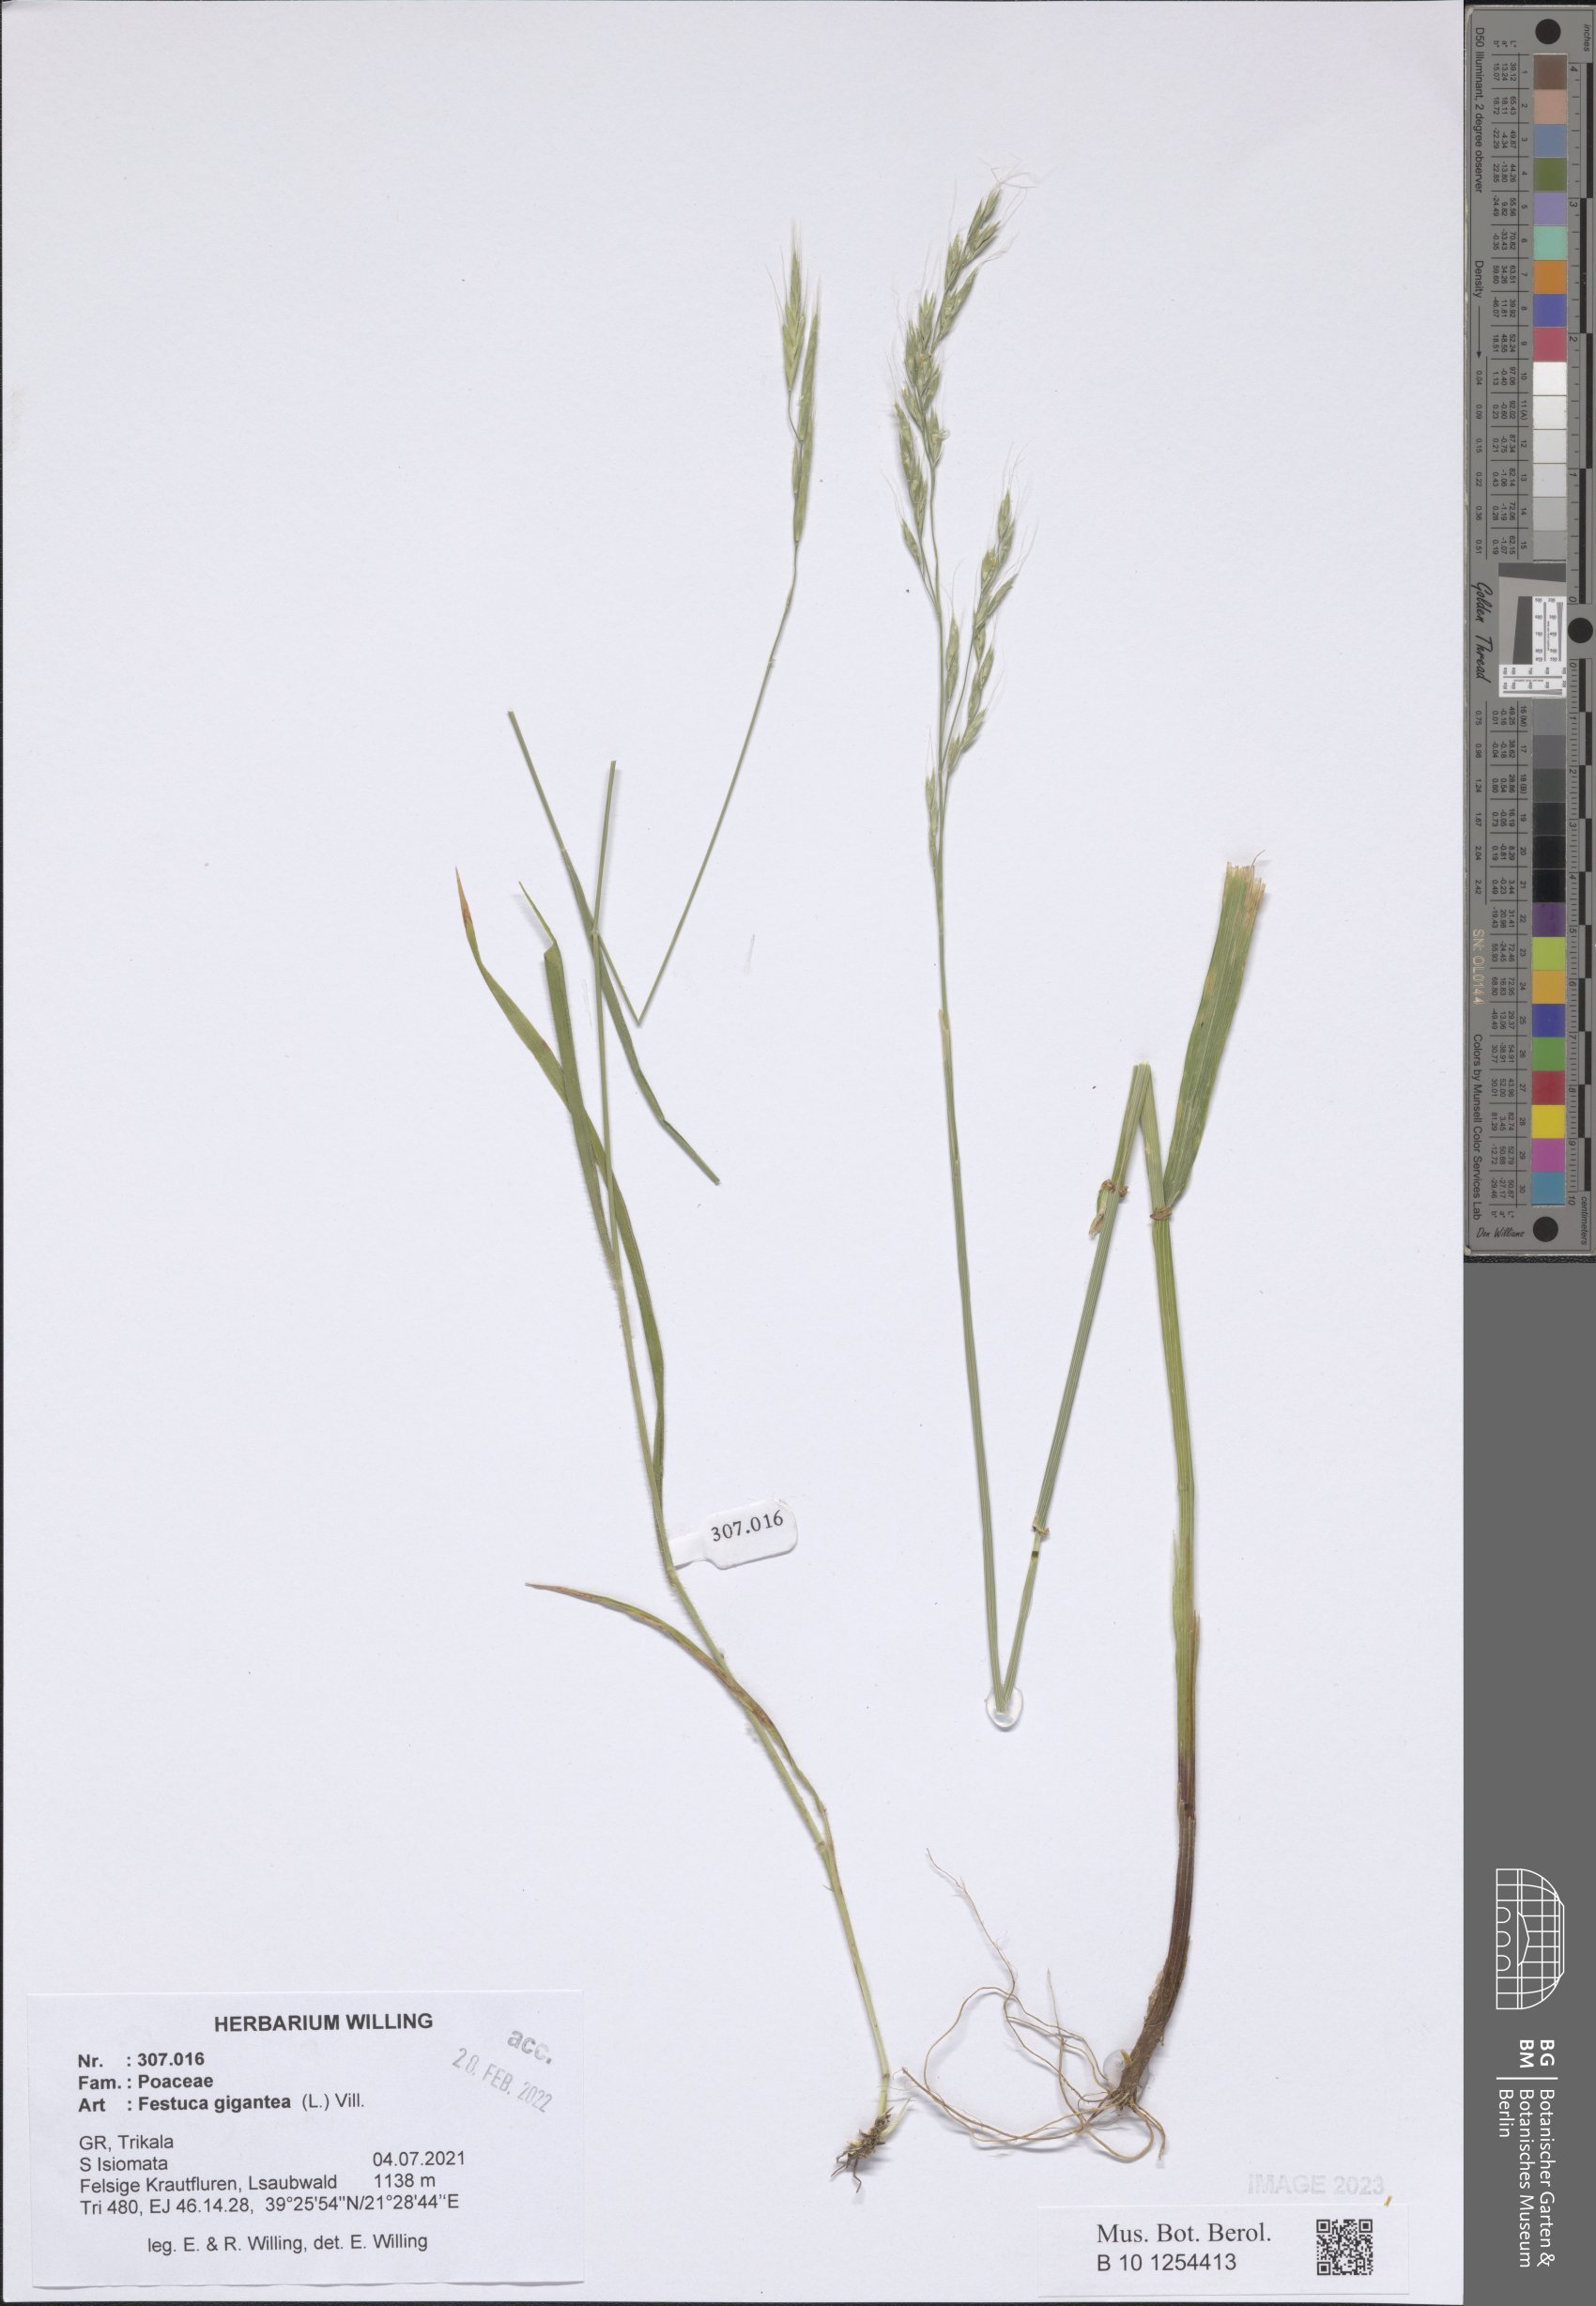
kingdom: Plantae
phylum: Tracheophyta
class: Liliopsida
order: Poales
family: Poaceae
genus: Lolium
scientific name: Lolium giganteum
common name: Giant fescue
